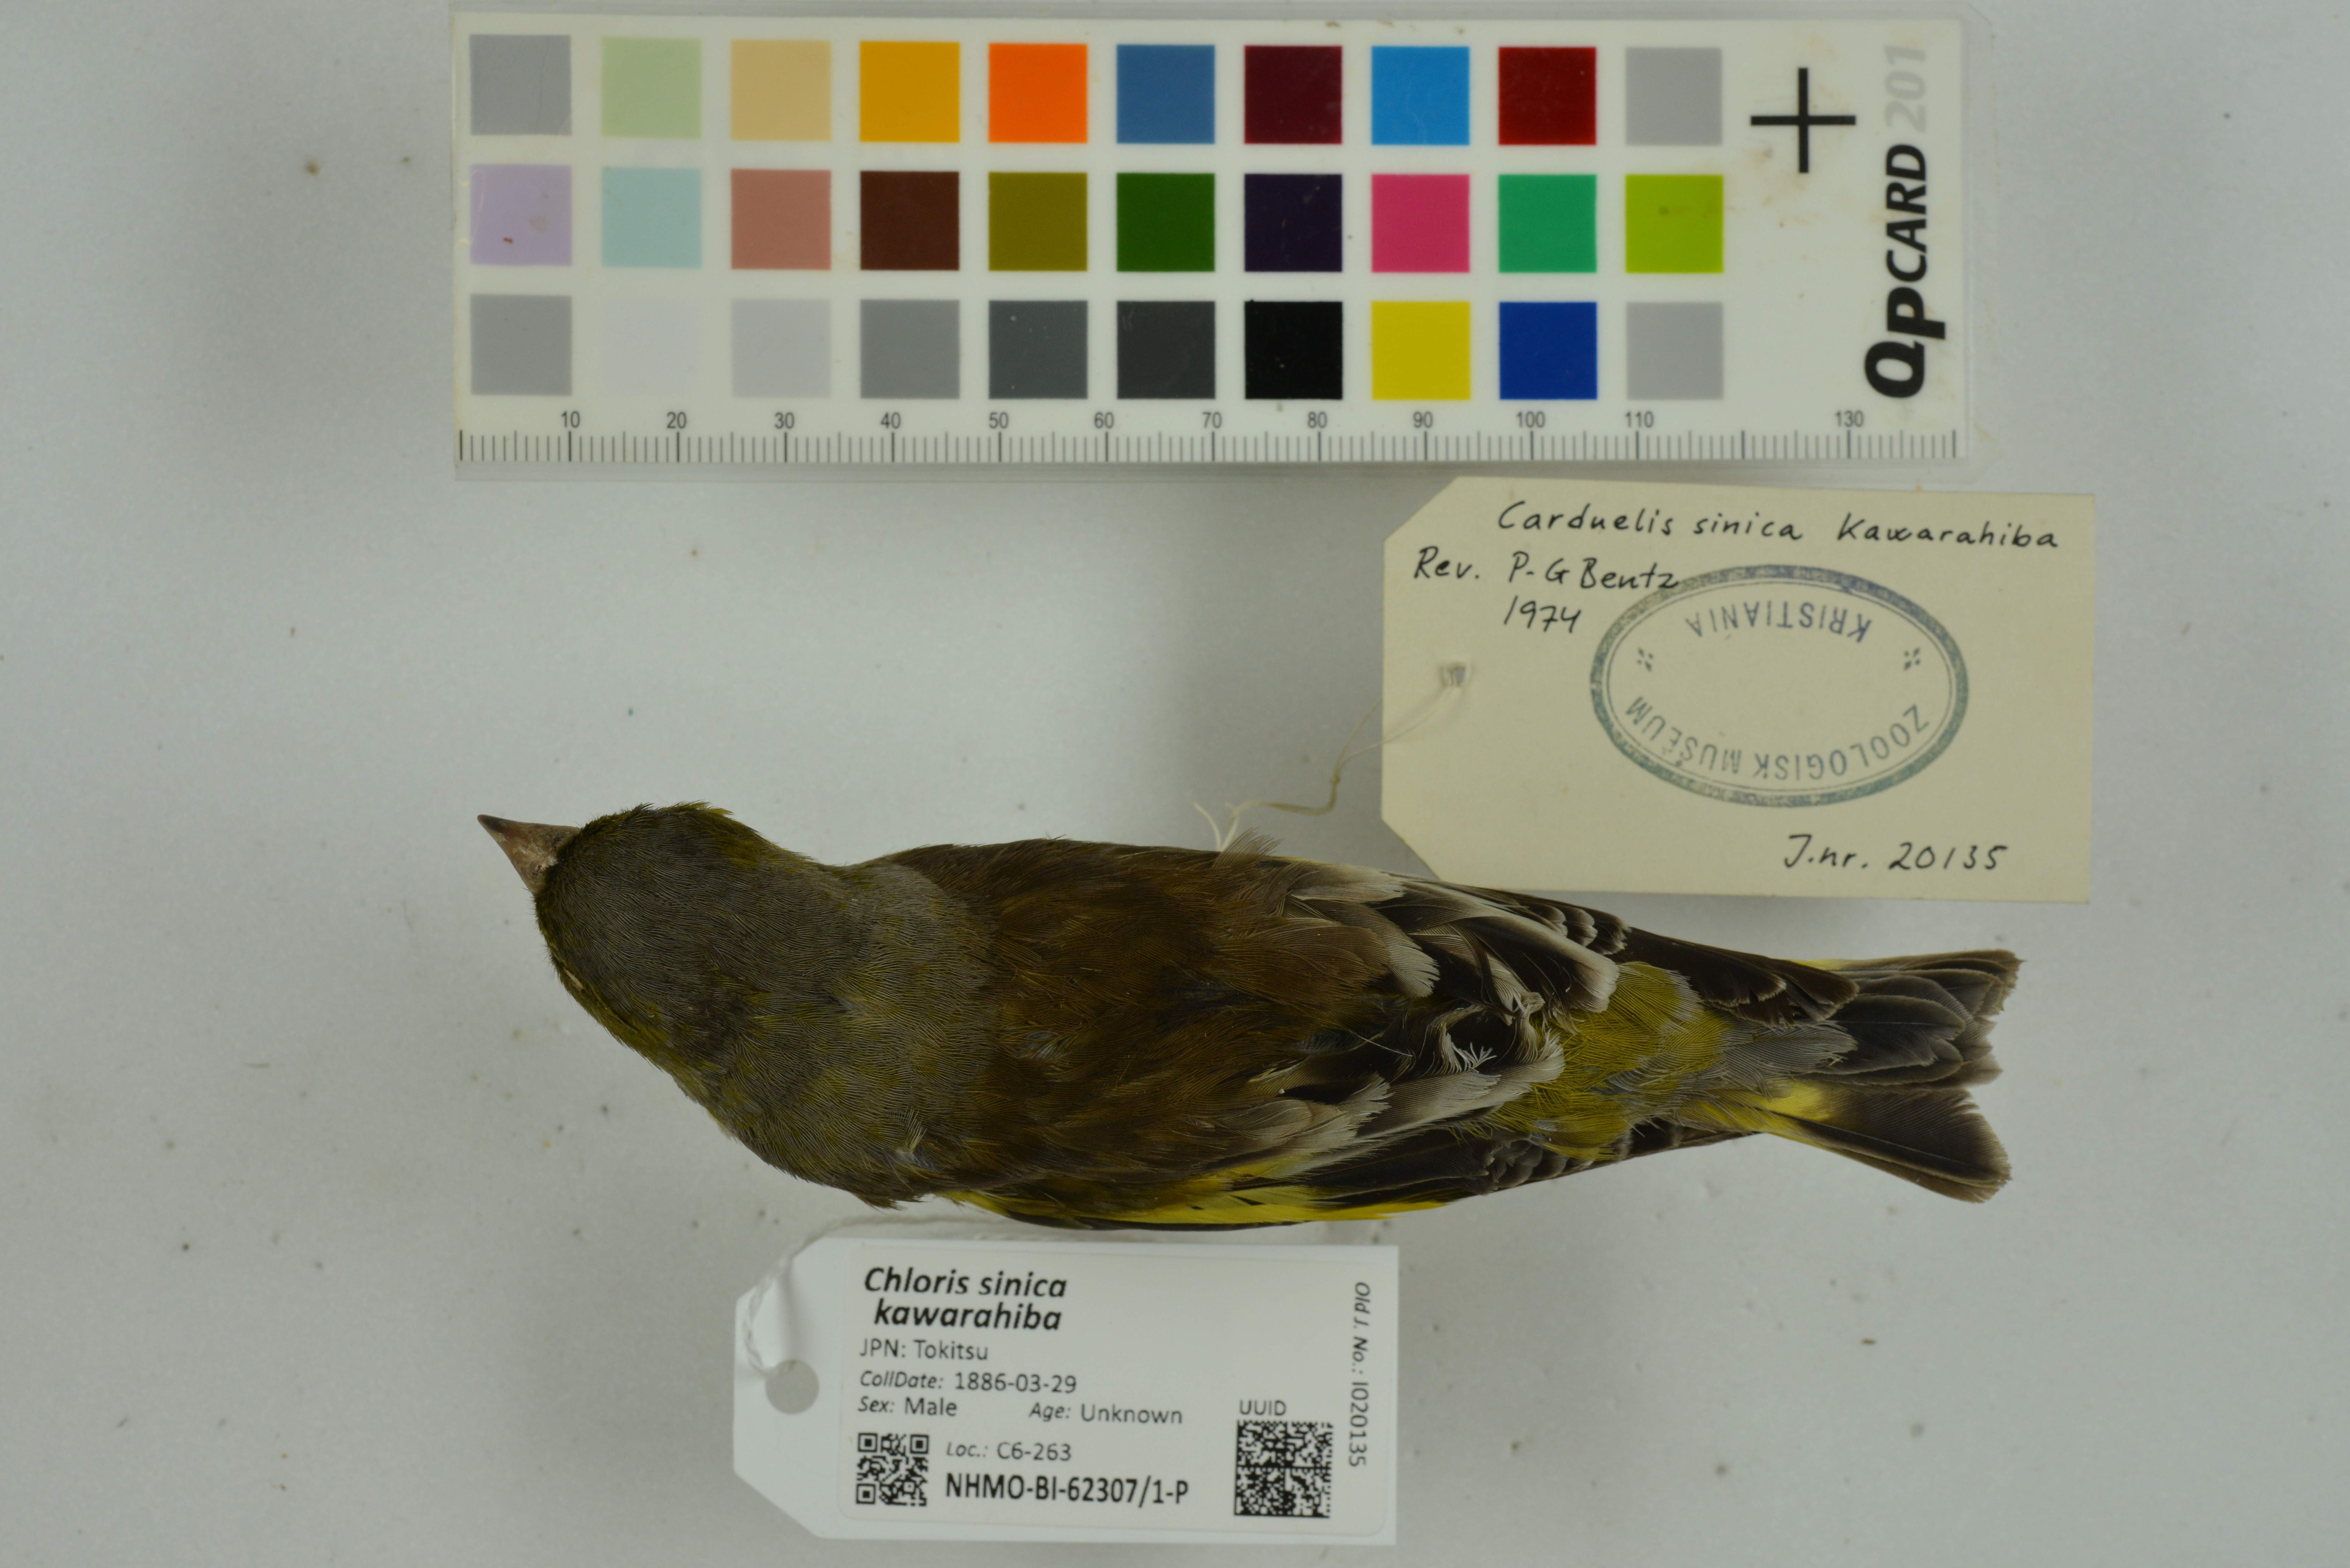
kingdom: Plantae
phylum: Tracheophyta
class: Liliopsida
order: Poales
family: Poaceae
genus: Chloris
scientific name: Chloris sinica
